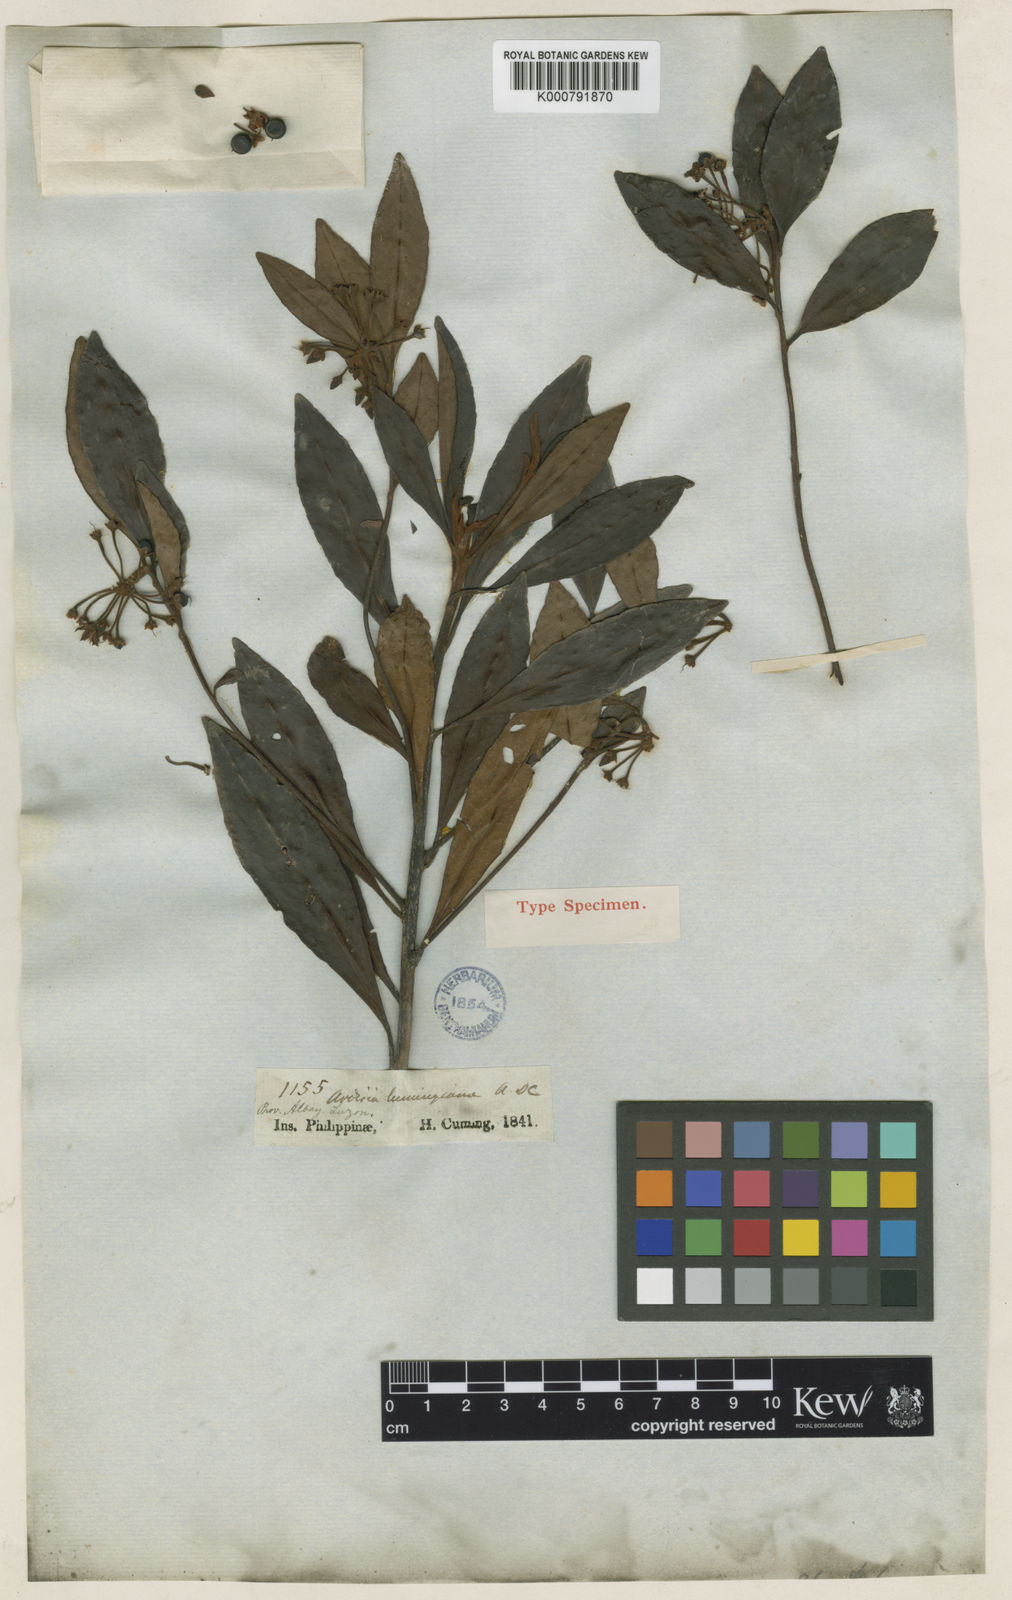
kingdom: Plantae
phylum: Tracheophyta
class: Magnoliopsida
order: Ericales
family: Primulaceae
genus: Ardisia
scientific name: Ardisia cumingiana
